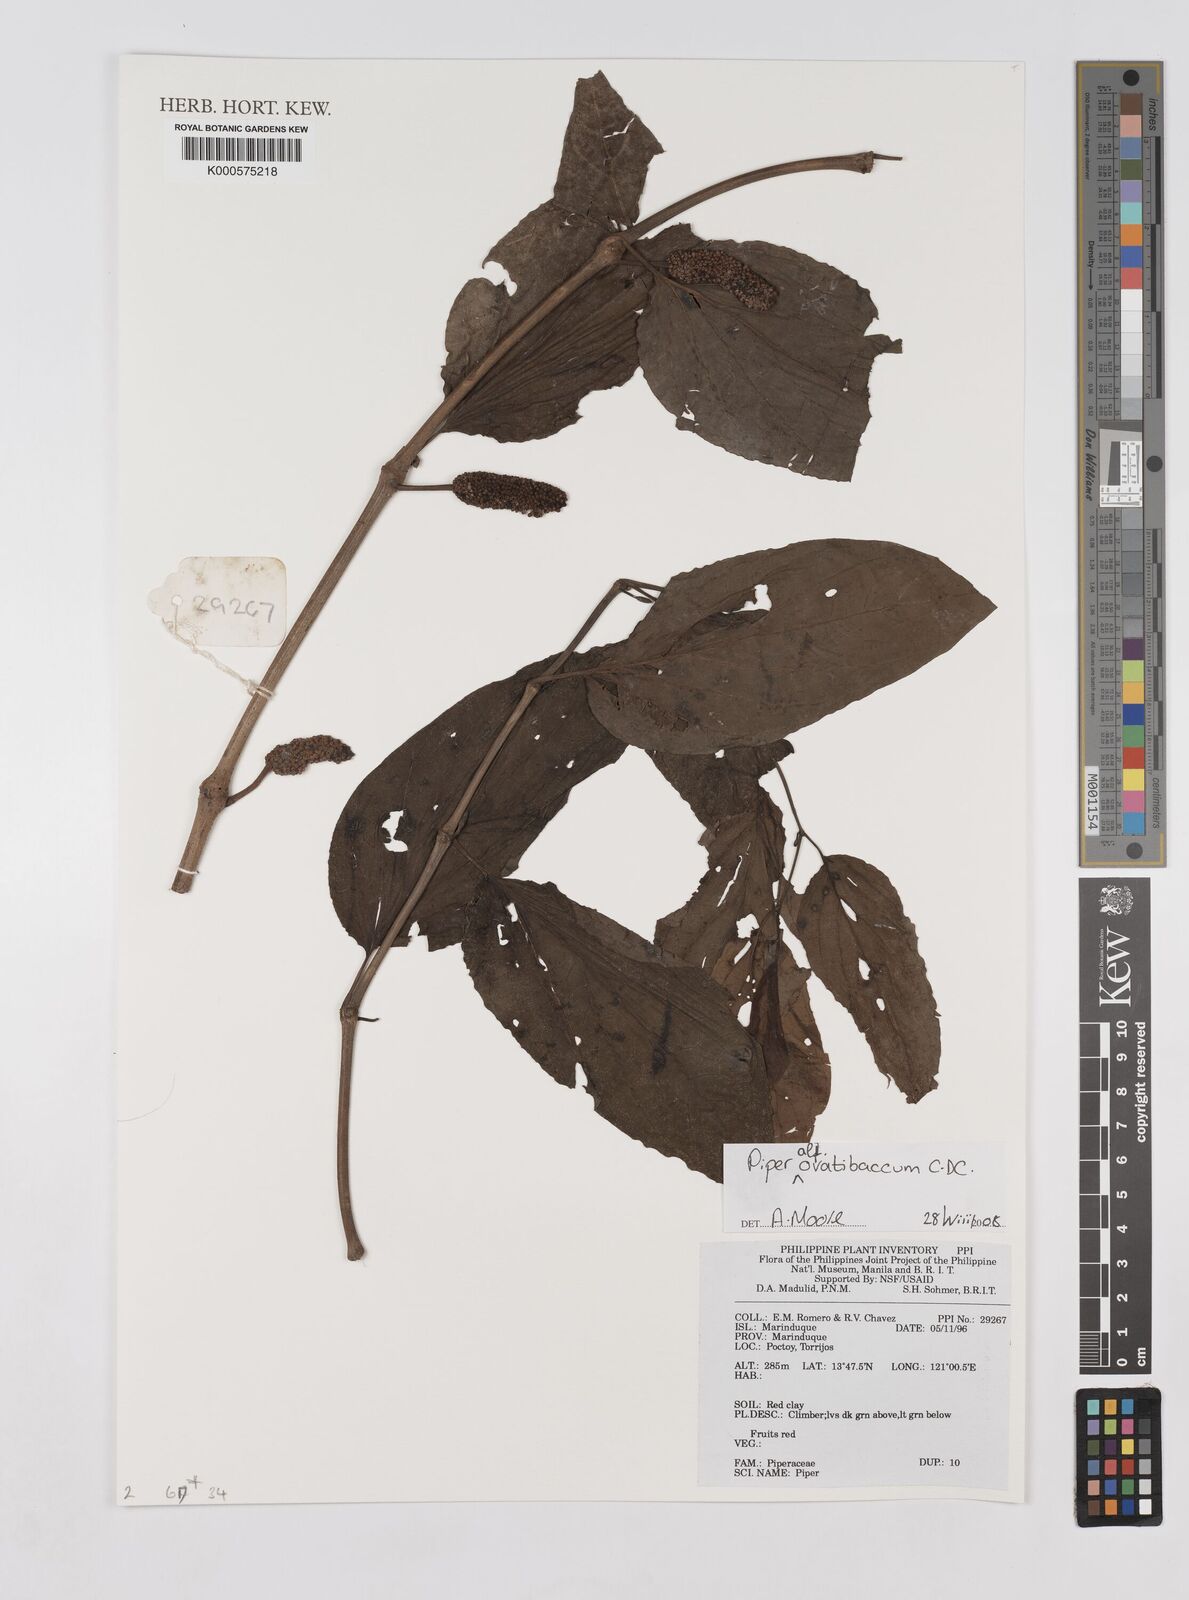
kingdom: Plantae
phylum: Tracheophyta
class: Magnoliopsida
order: Piperales
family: Piperaceae
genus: Piper
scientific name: Piper ovatibaccum
